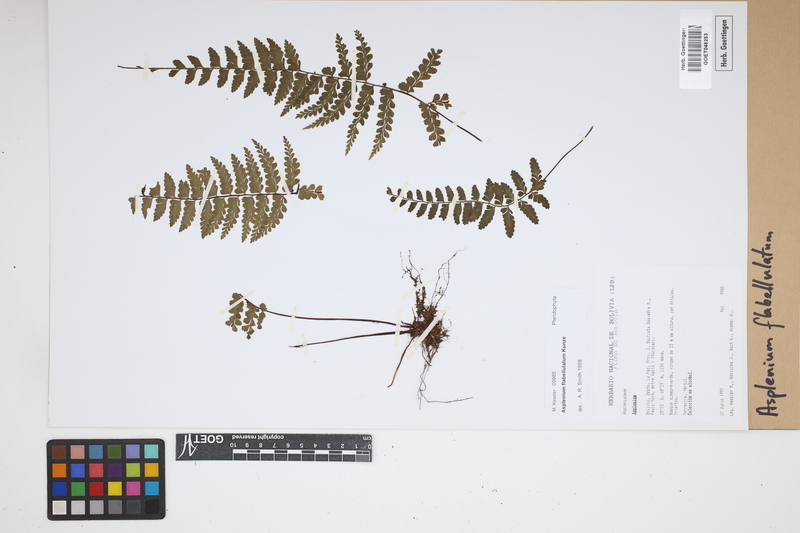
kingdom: Plantae
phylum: Tracheophyta
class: Polypodiopsida
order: Polypodiales
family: Aspleniaceae
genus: Asplenium
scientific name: Asplenium flabellulatum
